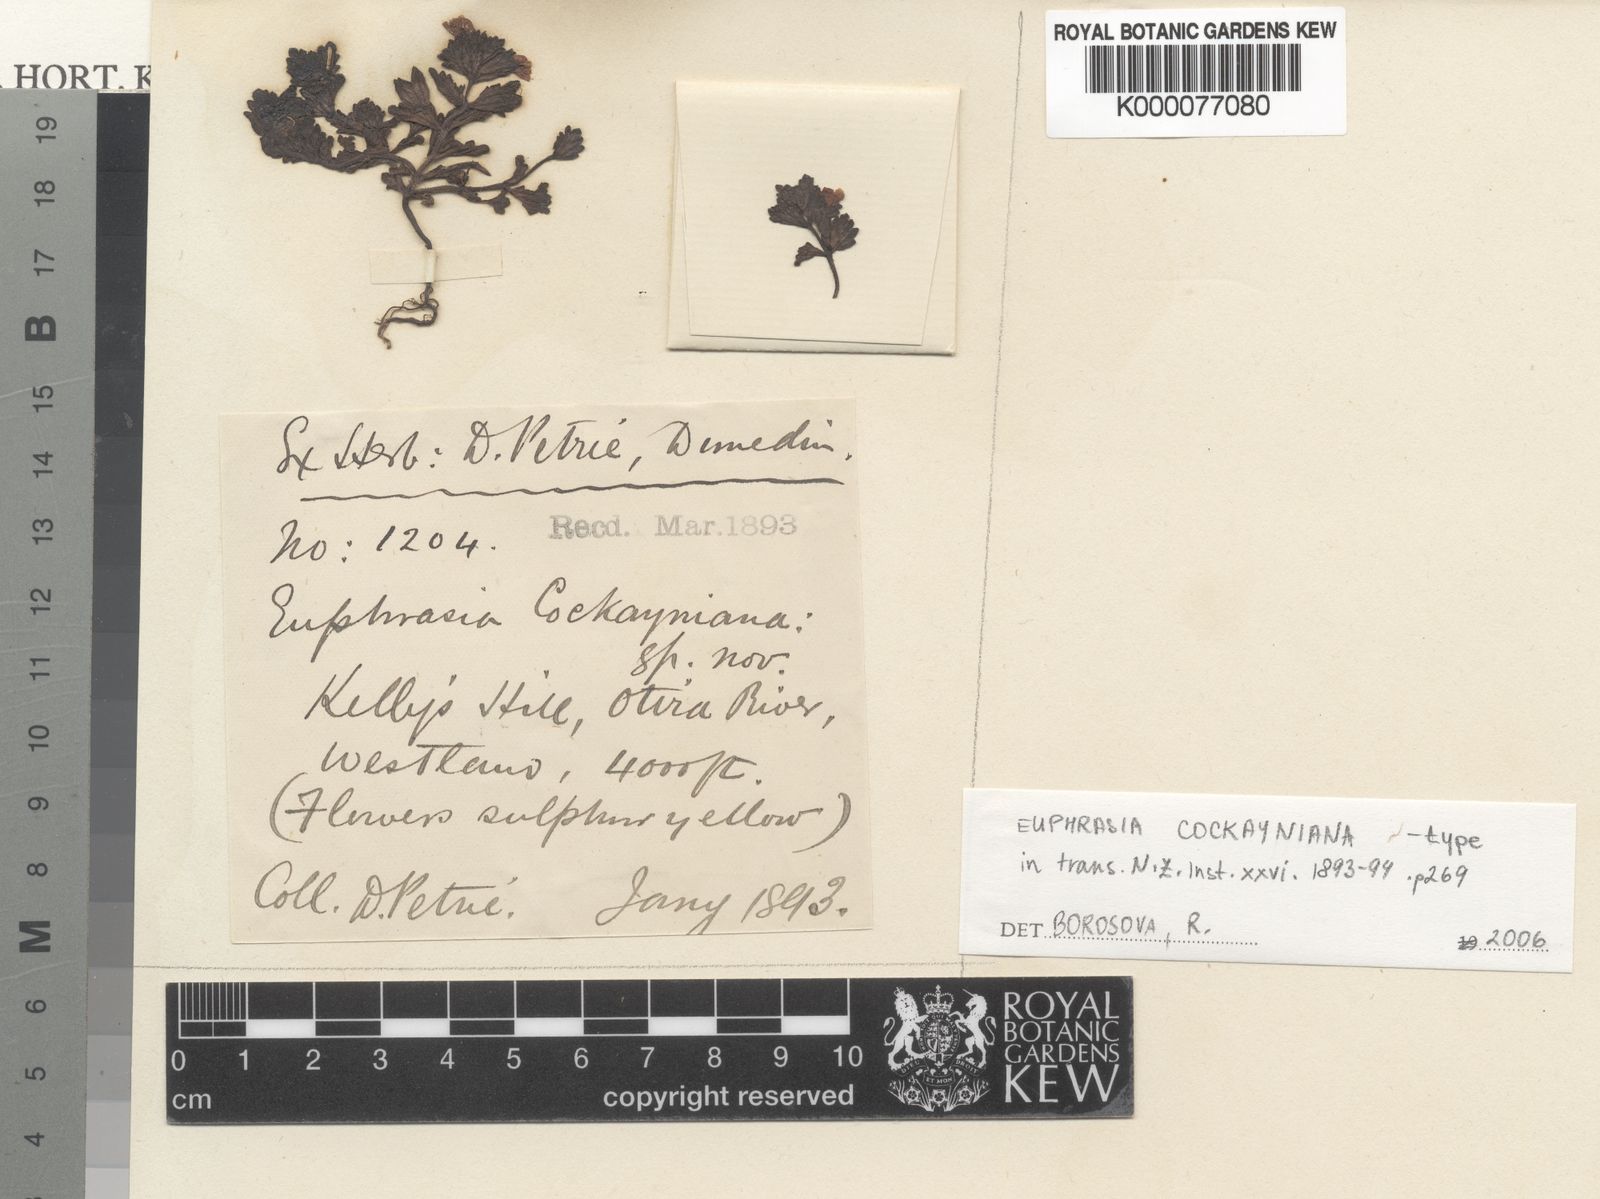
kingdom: Plantae
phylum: Tracheophyta
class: Magnoliopsida
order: Lamiales
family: Orobanchaceae
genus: Euphrasia
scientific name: Euphrasia cockayneana
